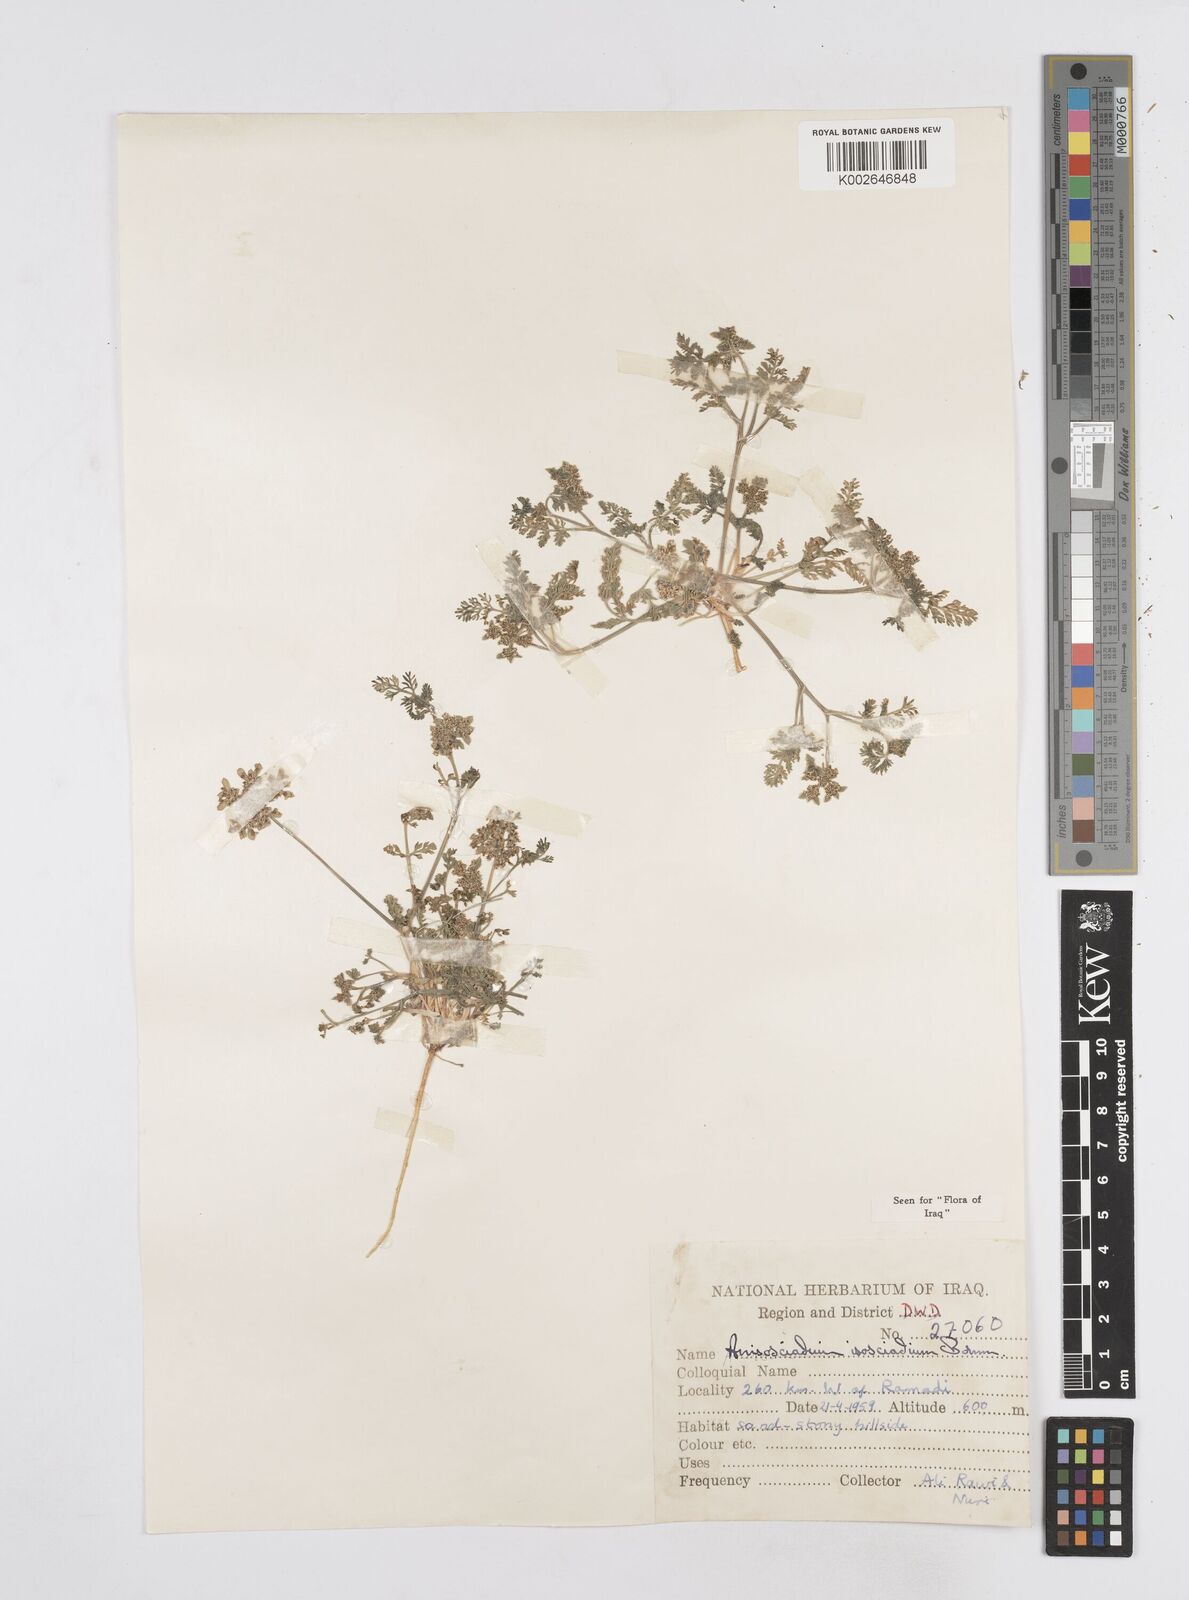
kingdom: Plantae
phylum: Tracheophyta
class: Magnoliopsida
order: Apiales
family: Apiaceae
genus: Anisosciadium
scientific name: Anisosciadium isosciadium
